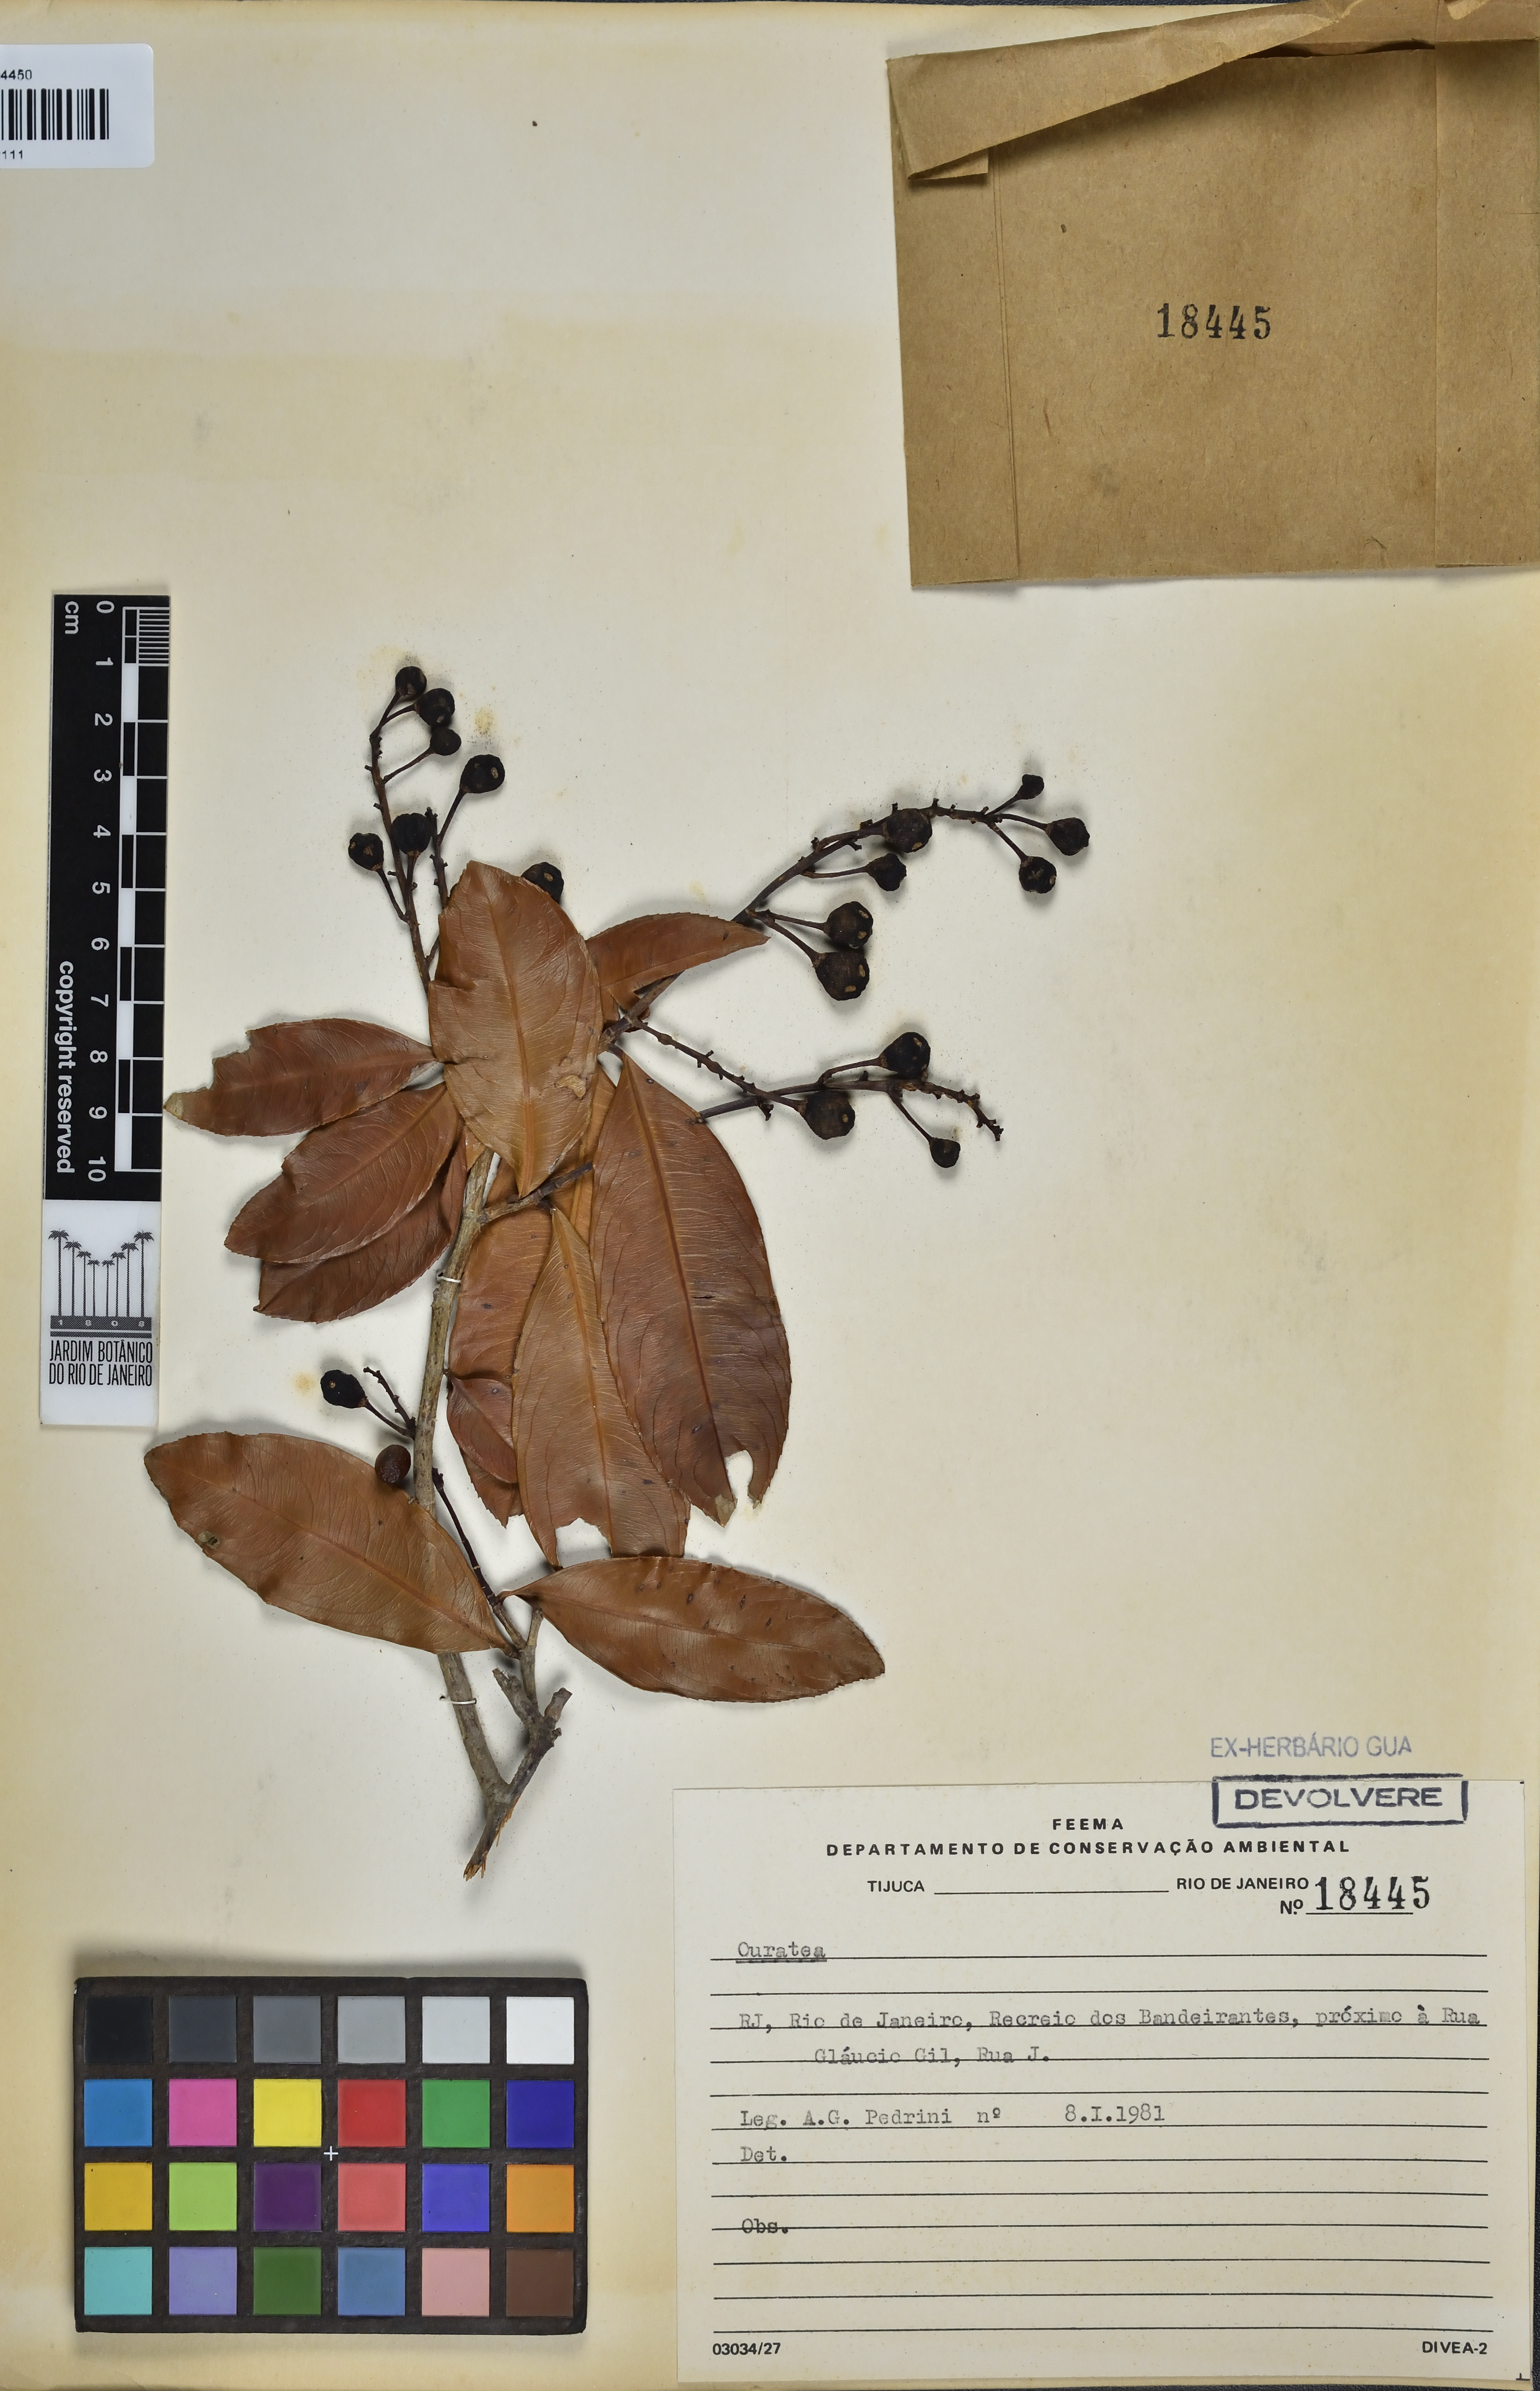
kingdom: Plantae
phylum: Tracheophyta
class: Magnoliopsida
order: Malpighiales
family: Ochnaceae
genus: Ouratea
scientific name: Ouratea
